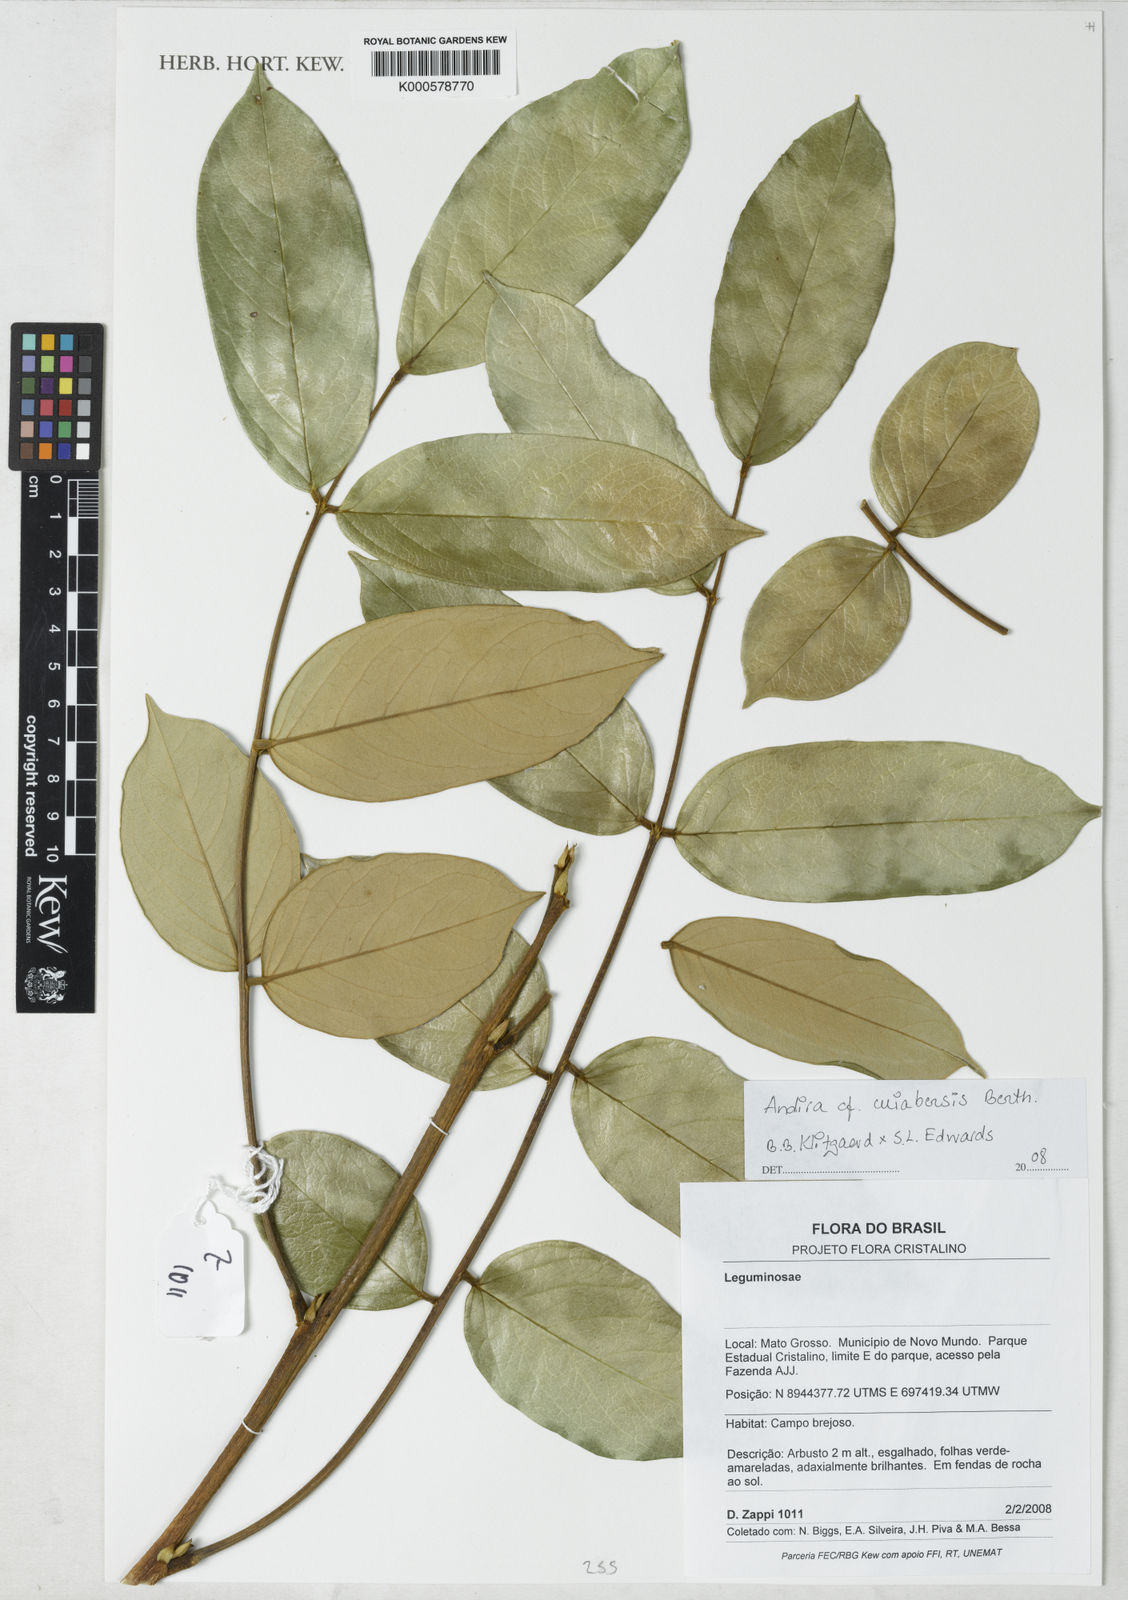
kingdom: Plantae
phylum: Tracheophyta
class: Magnoliopsida
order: Fabales
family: Fabaceae
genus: Andira
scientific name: Andira cujabensis
